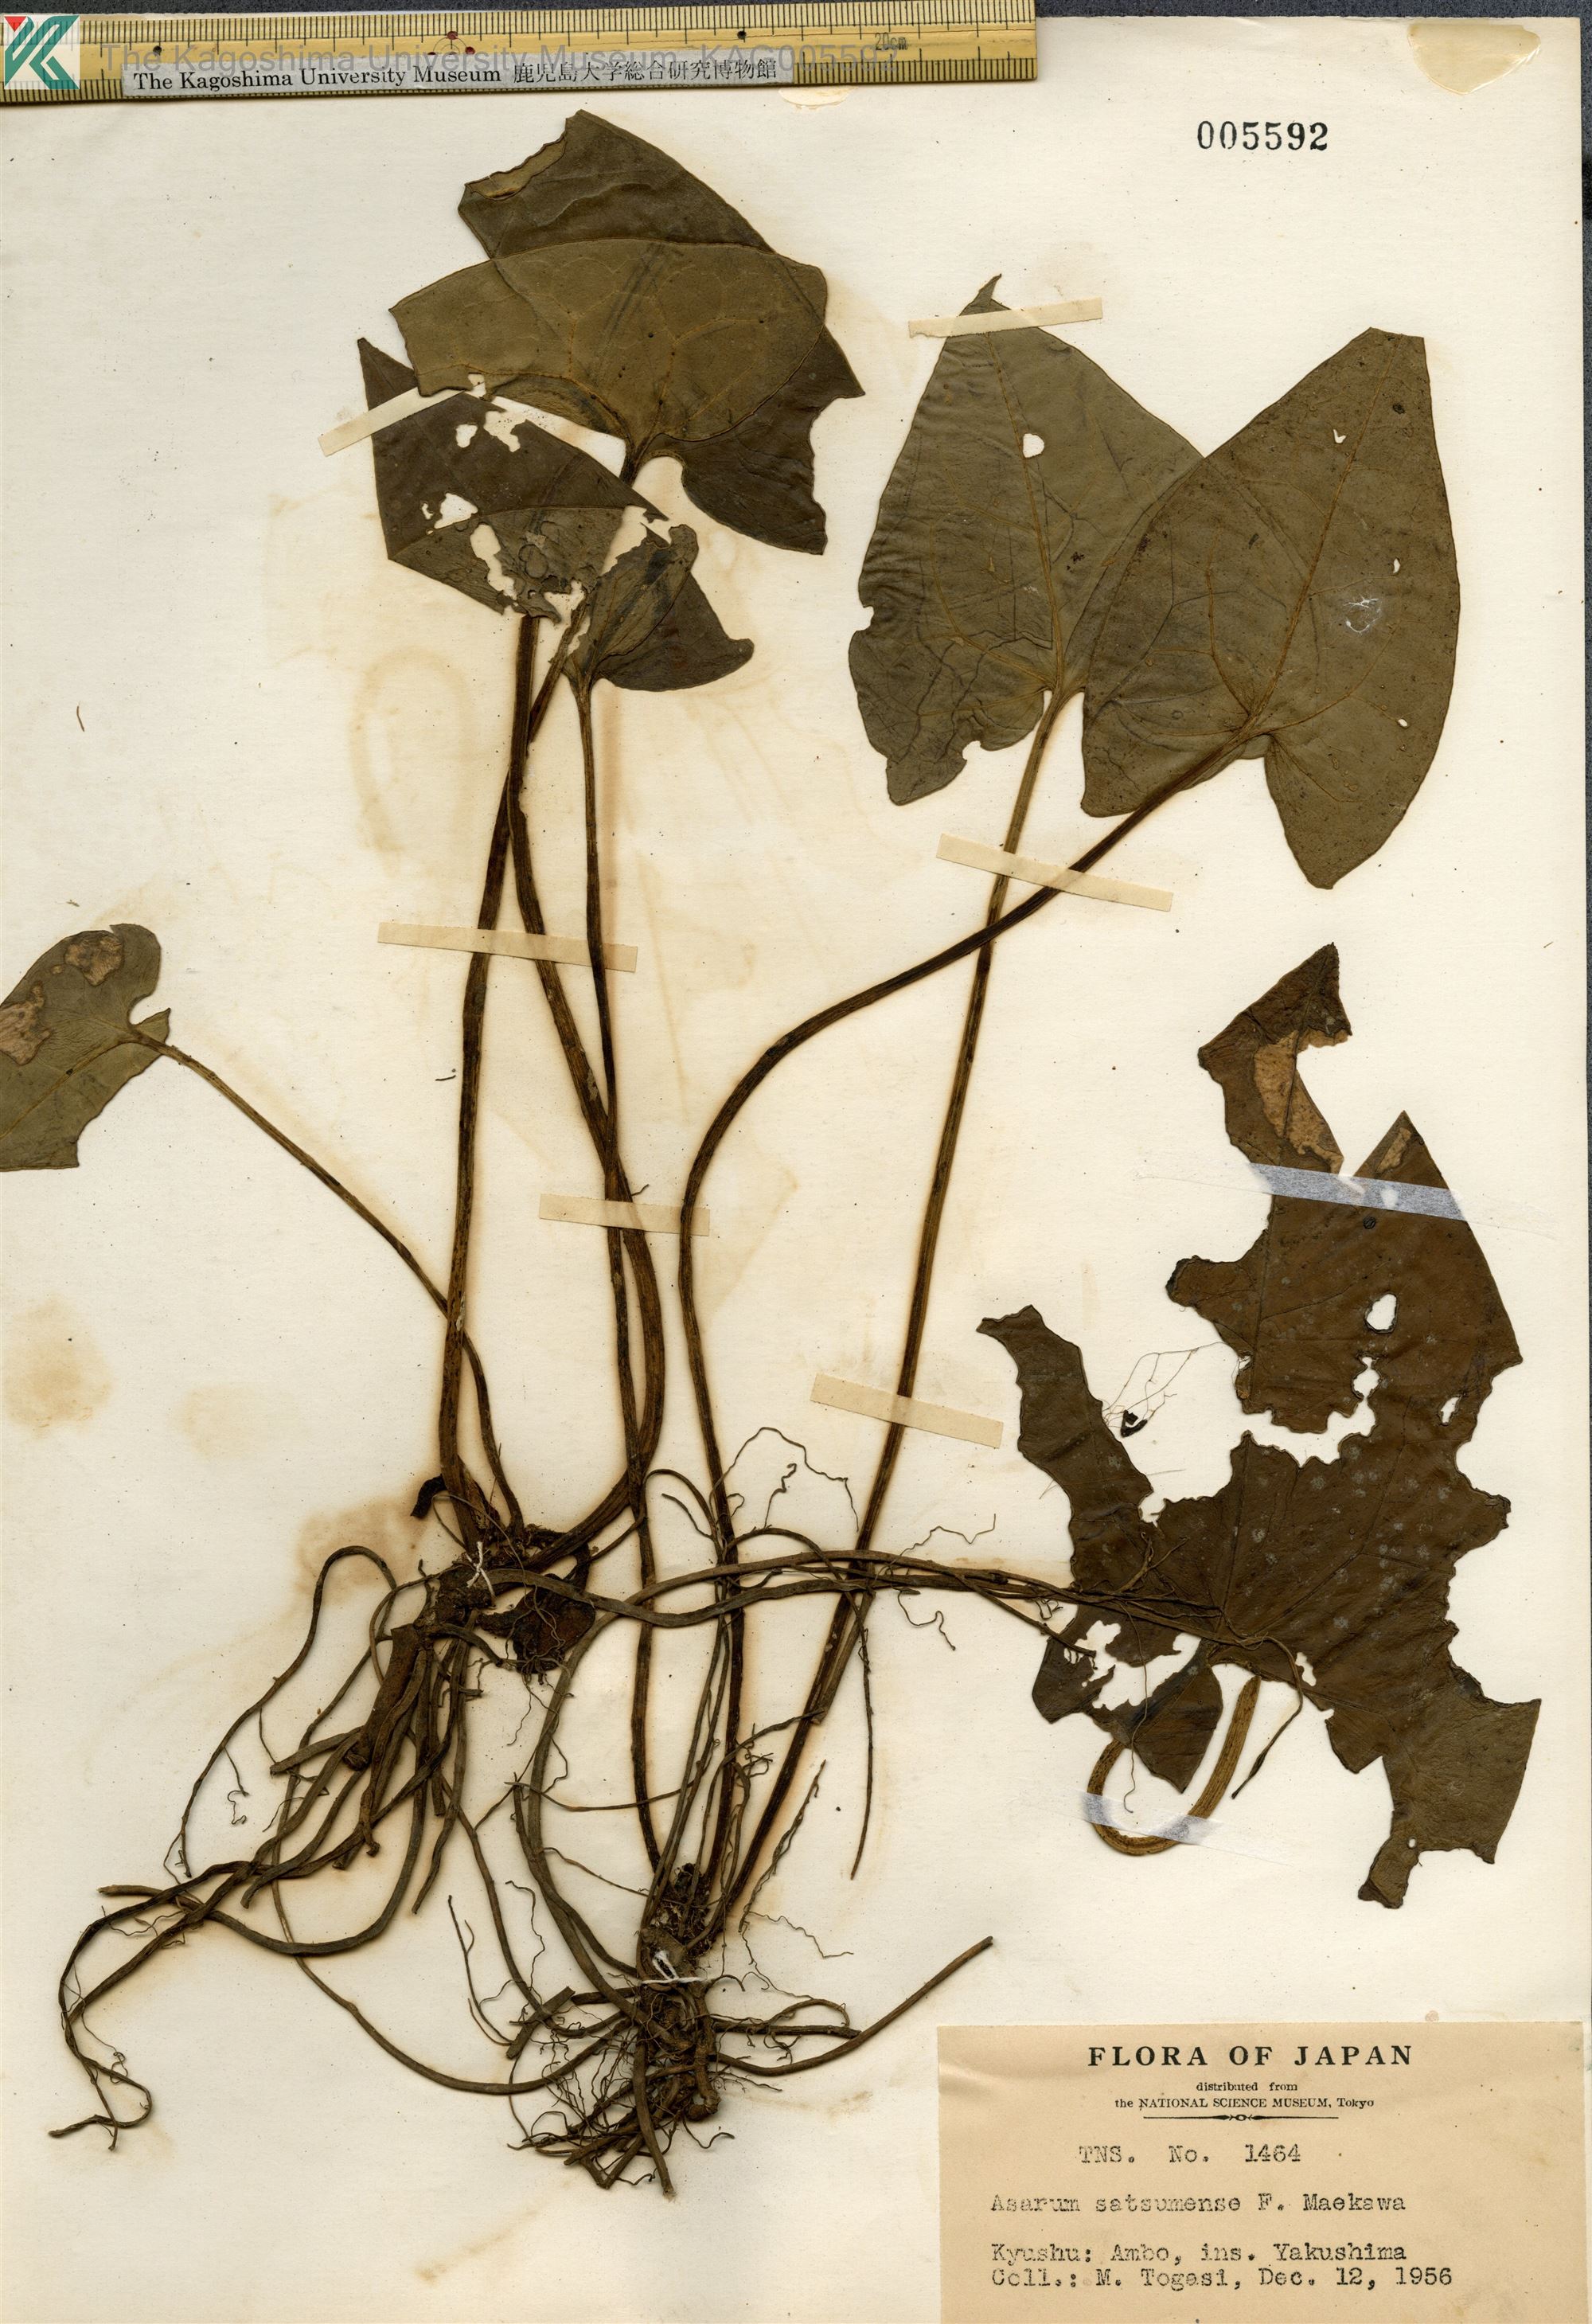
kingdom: Plantae
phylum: Tracheophyta
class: Magnoliopsida
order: Piperales
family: Aristolochiaceae
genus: Asarum
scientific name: Asarum kumageanum
